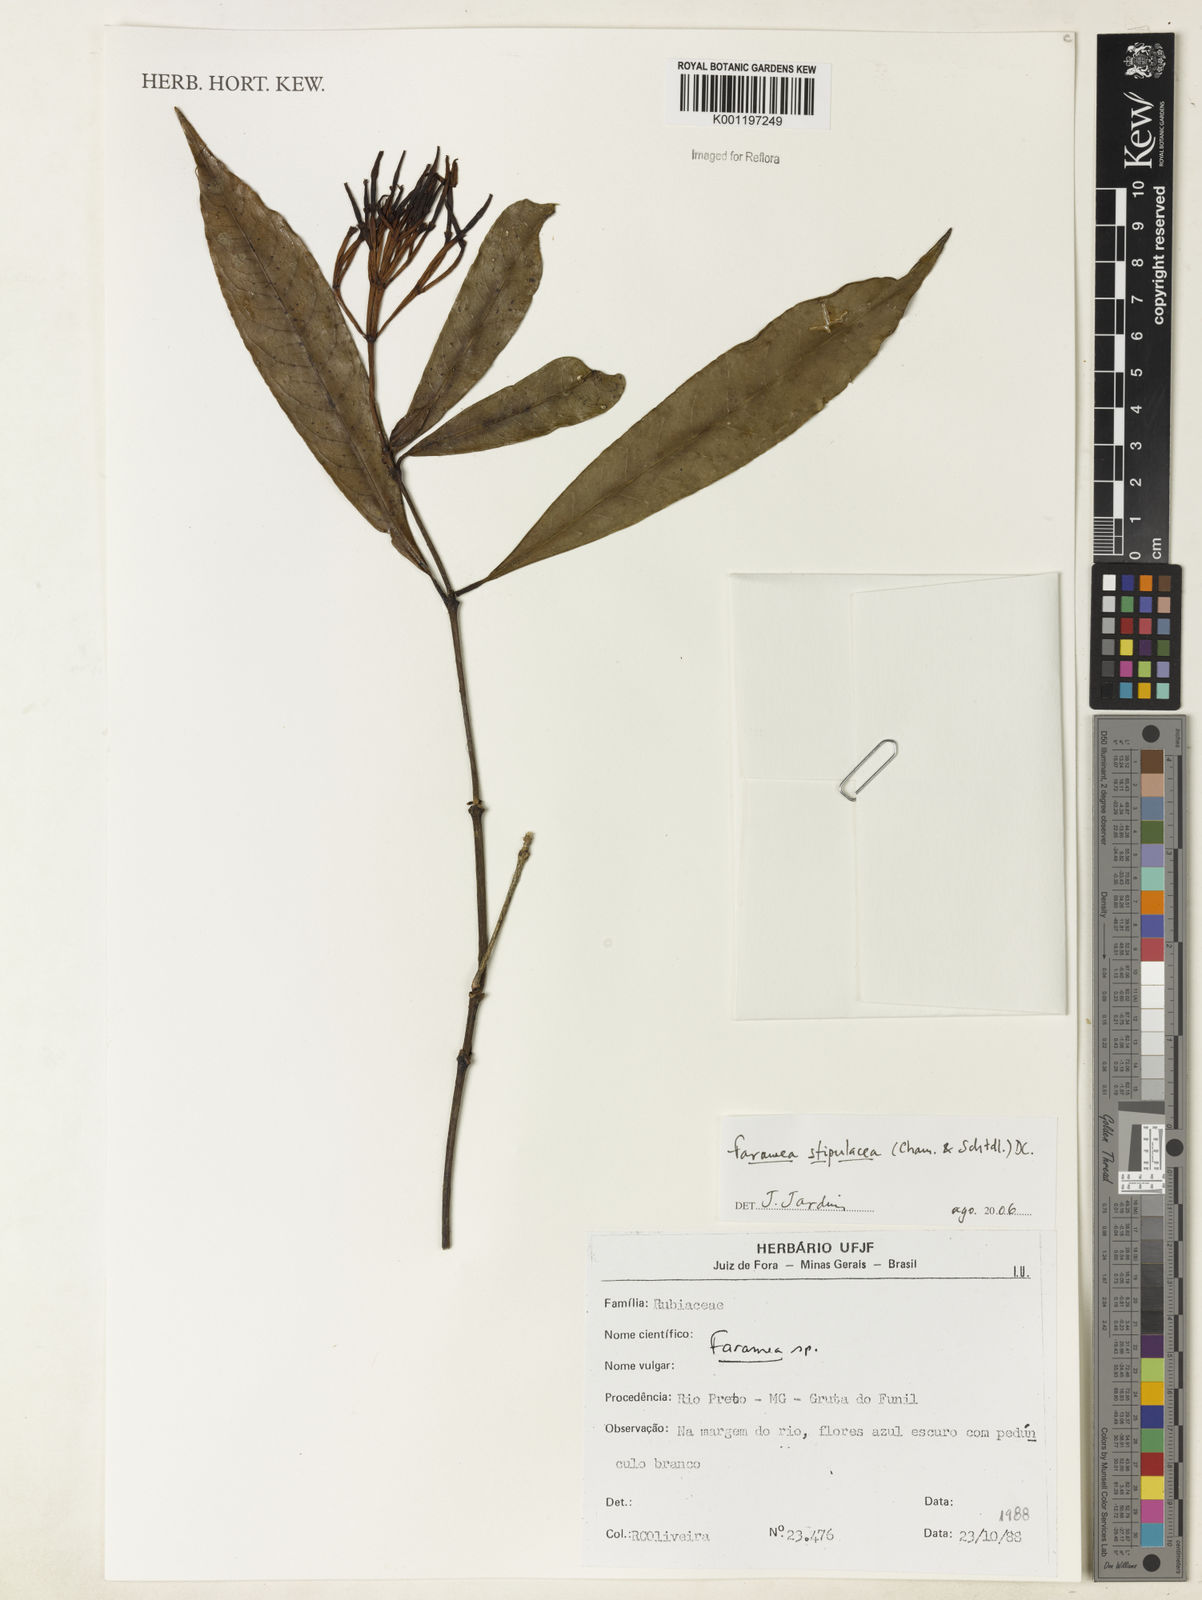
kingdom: Plantae
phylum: Tracheophyta
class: Magnoliopsida
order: Gentianales
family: Rubiaceae
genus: Faramea
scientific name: Faramea sessilifolia
